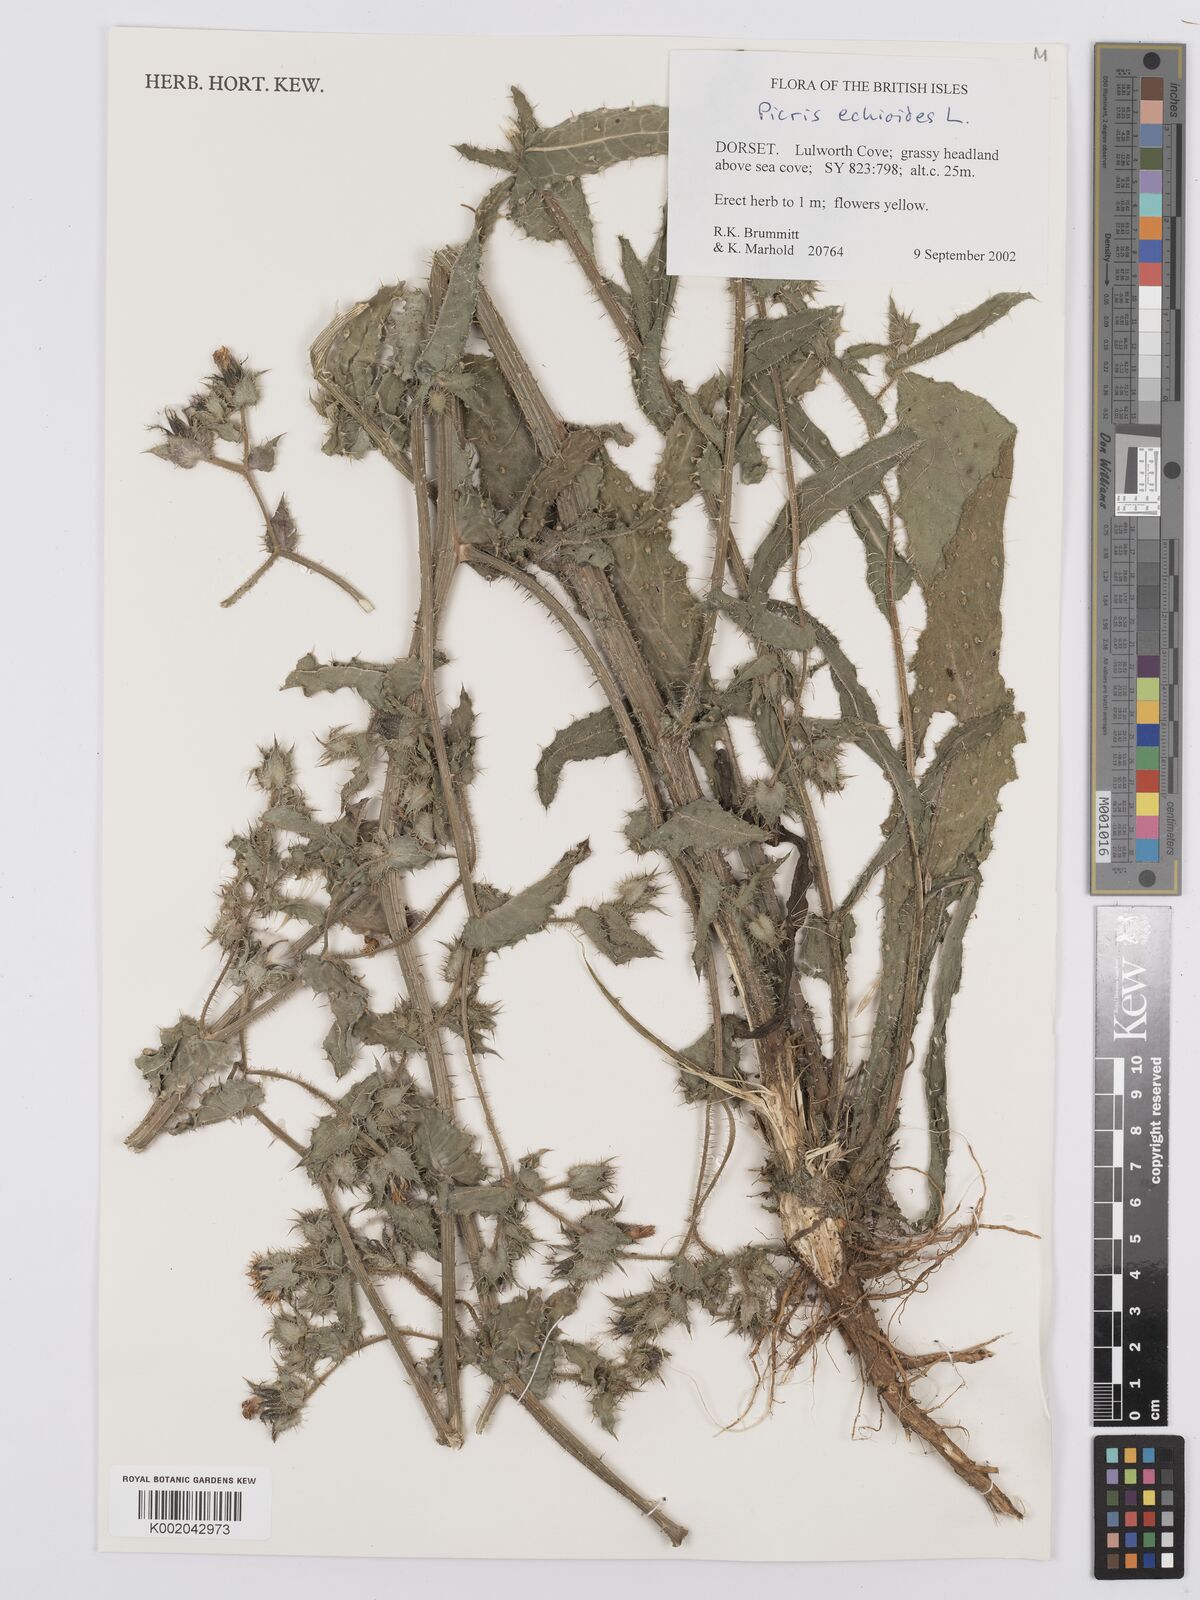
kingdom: Plantae
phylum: Tracheophyta
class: Magnoliopsida
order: Asterales
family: Asteraceae
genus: Helminthotheca
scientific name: Helminthotheca echioides
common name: Ox-tongue
